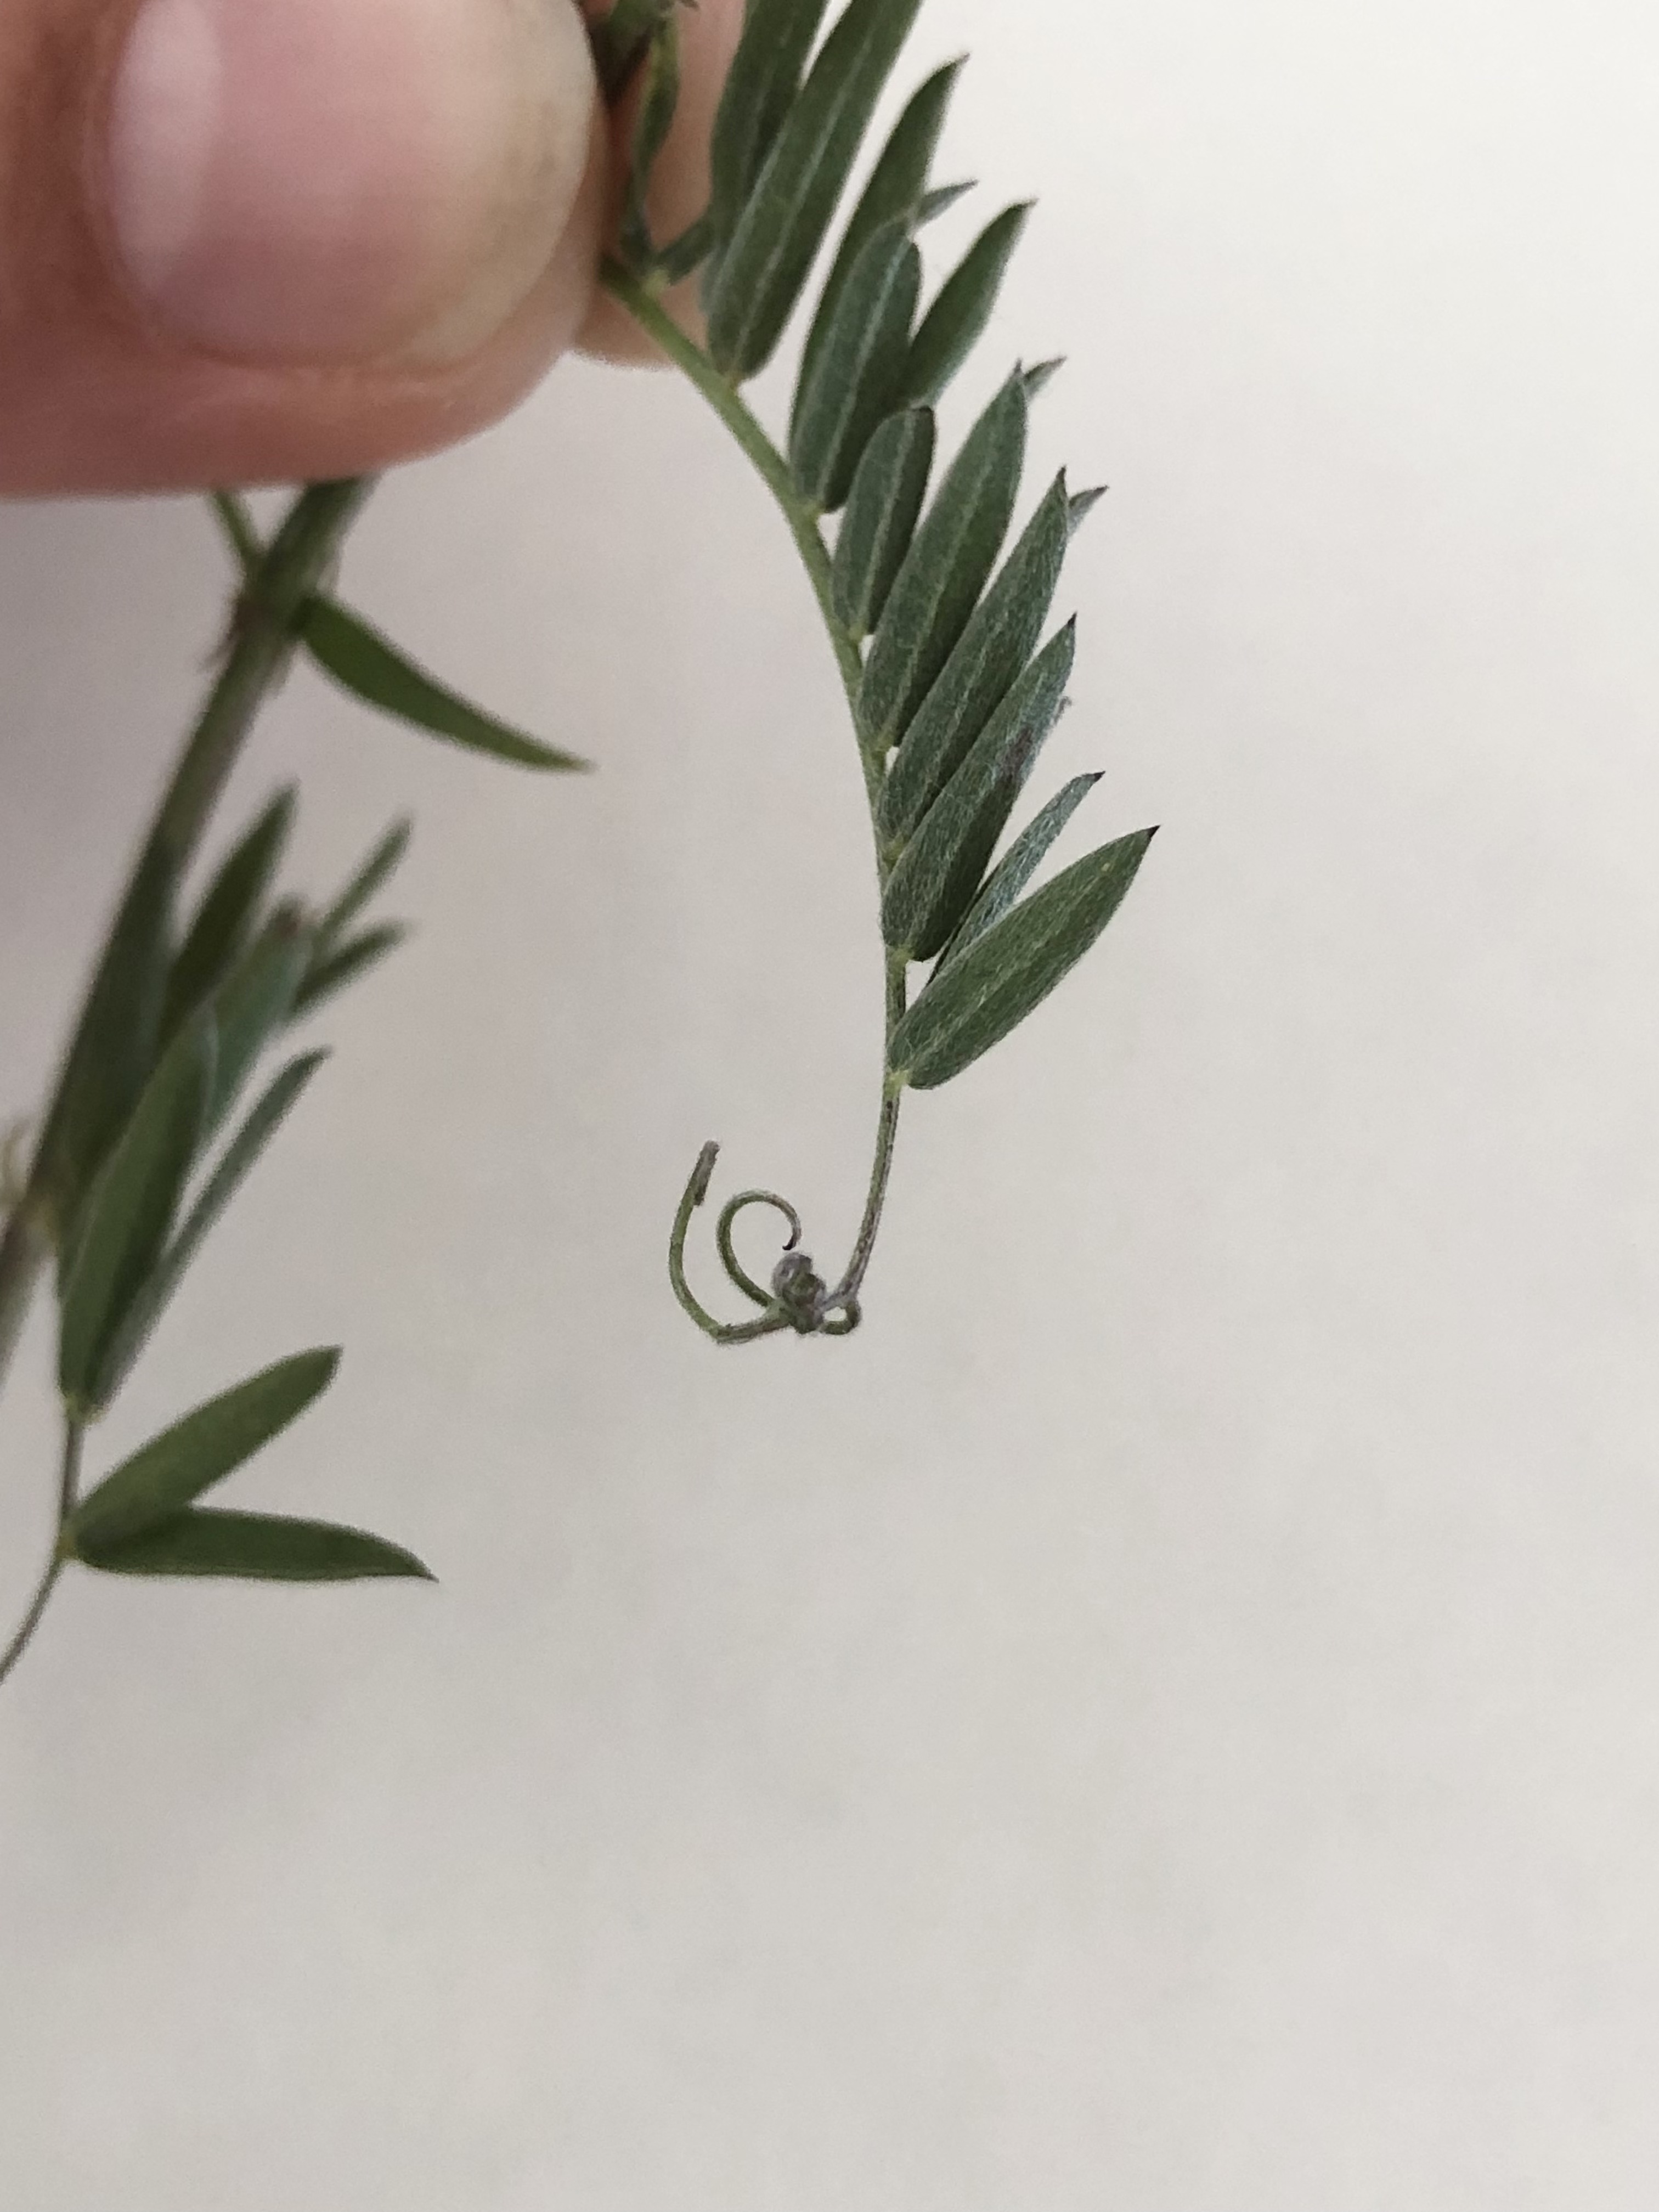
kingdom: Plantae
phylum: Tracheophyta
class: Magnoliopsida
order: Fabales
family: Fabaceae
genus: Vicia
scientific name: Vicia cracca
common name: Muse-vikke
